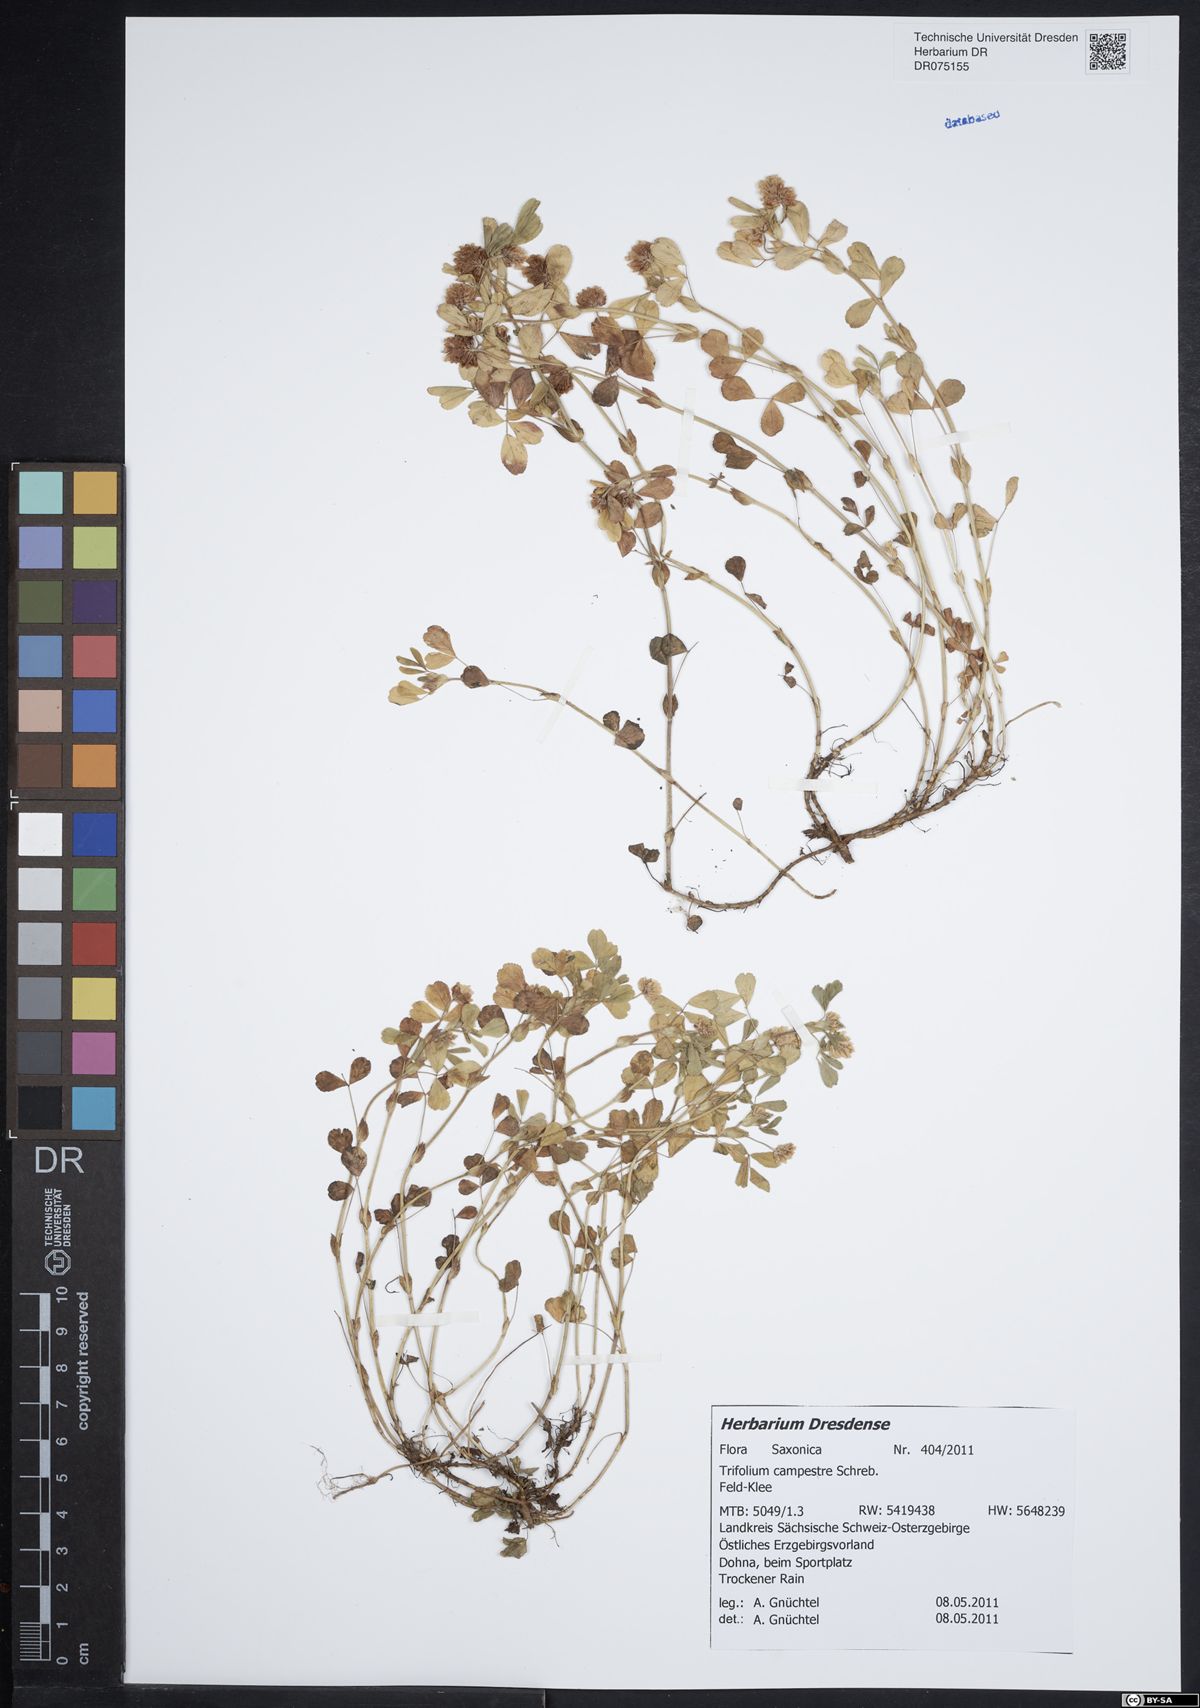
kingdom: Plantae
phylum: Tracheophyta
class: Magnoliopsida
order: Fabales
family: Fabaceae
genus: Trifolium
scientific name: Trifolium campestre
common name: Field clover
